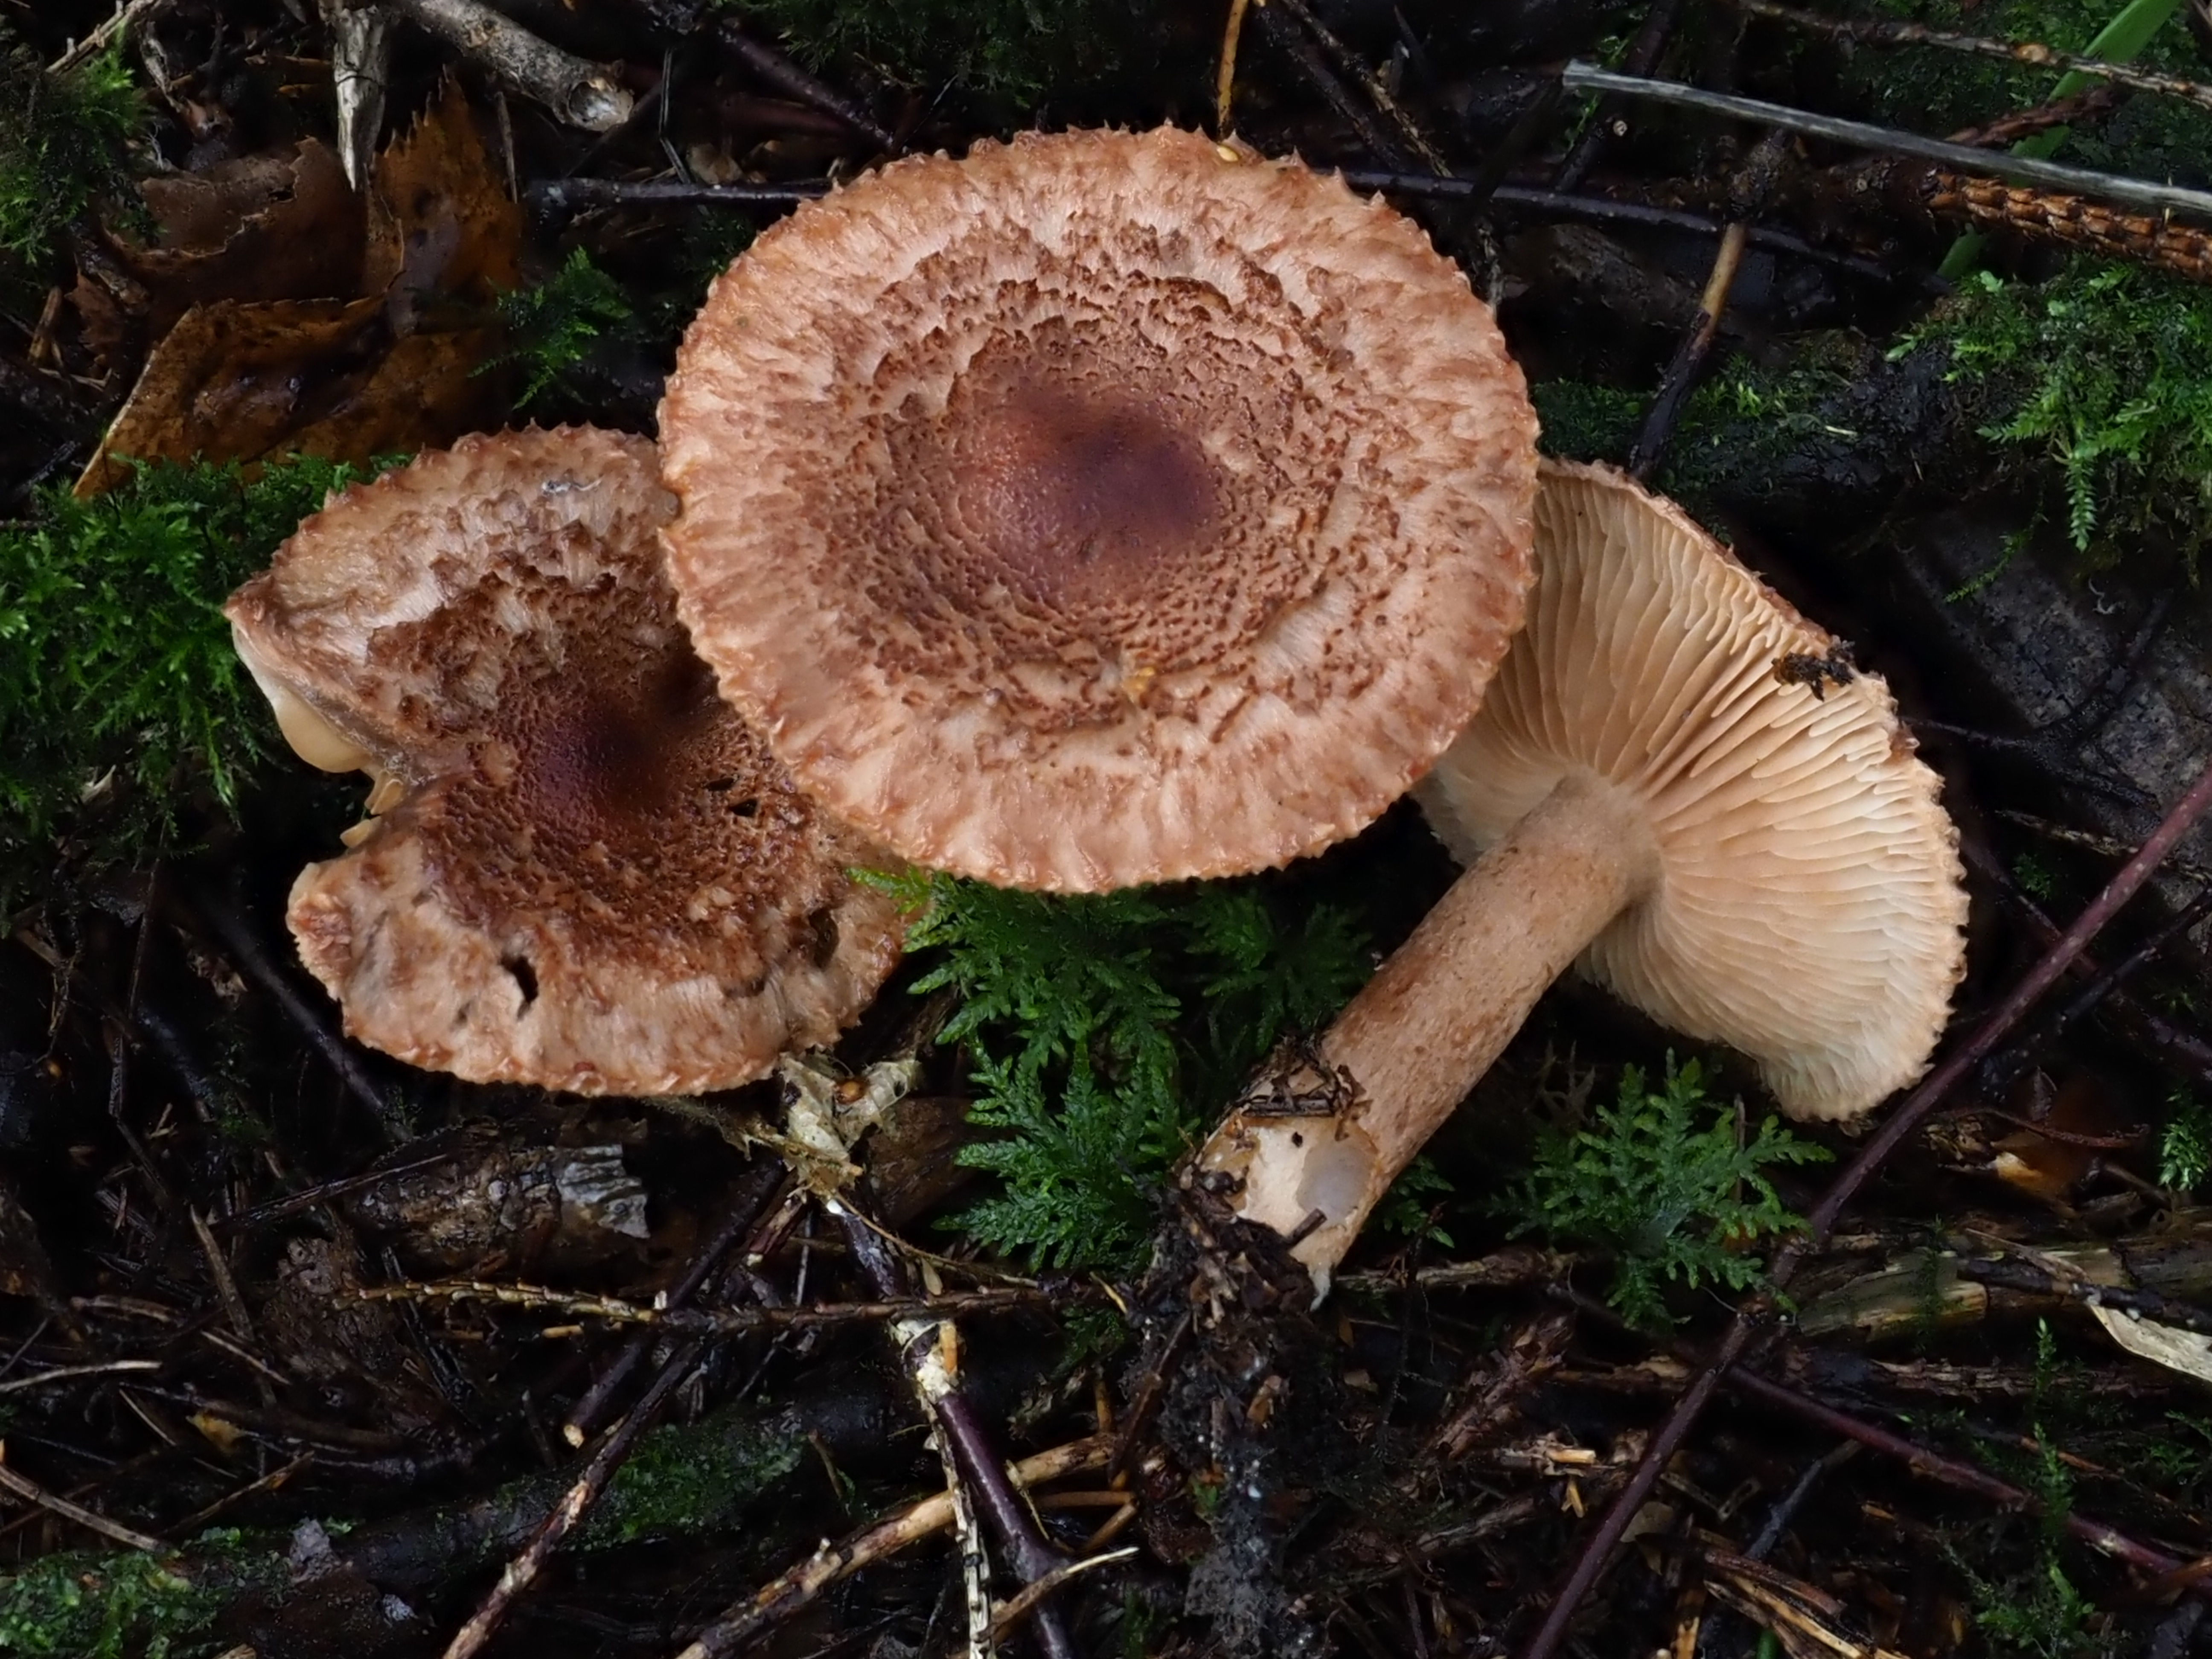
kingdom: Fungi
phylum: Basidiomycota
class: Agaricomycetes
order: Agaricales
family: Tricholomataceae
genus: Tricholoma
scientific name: Tricholoma vaccinum
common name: Scaly knight
